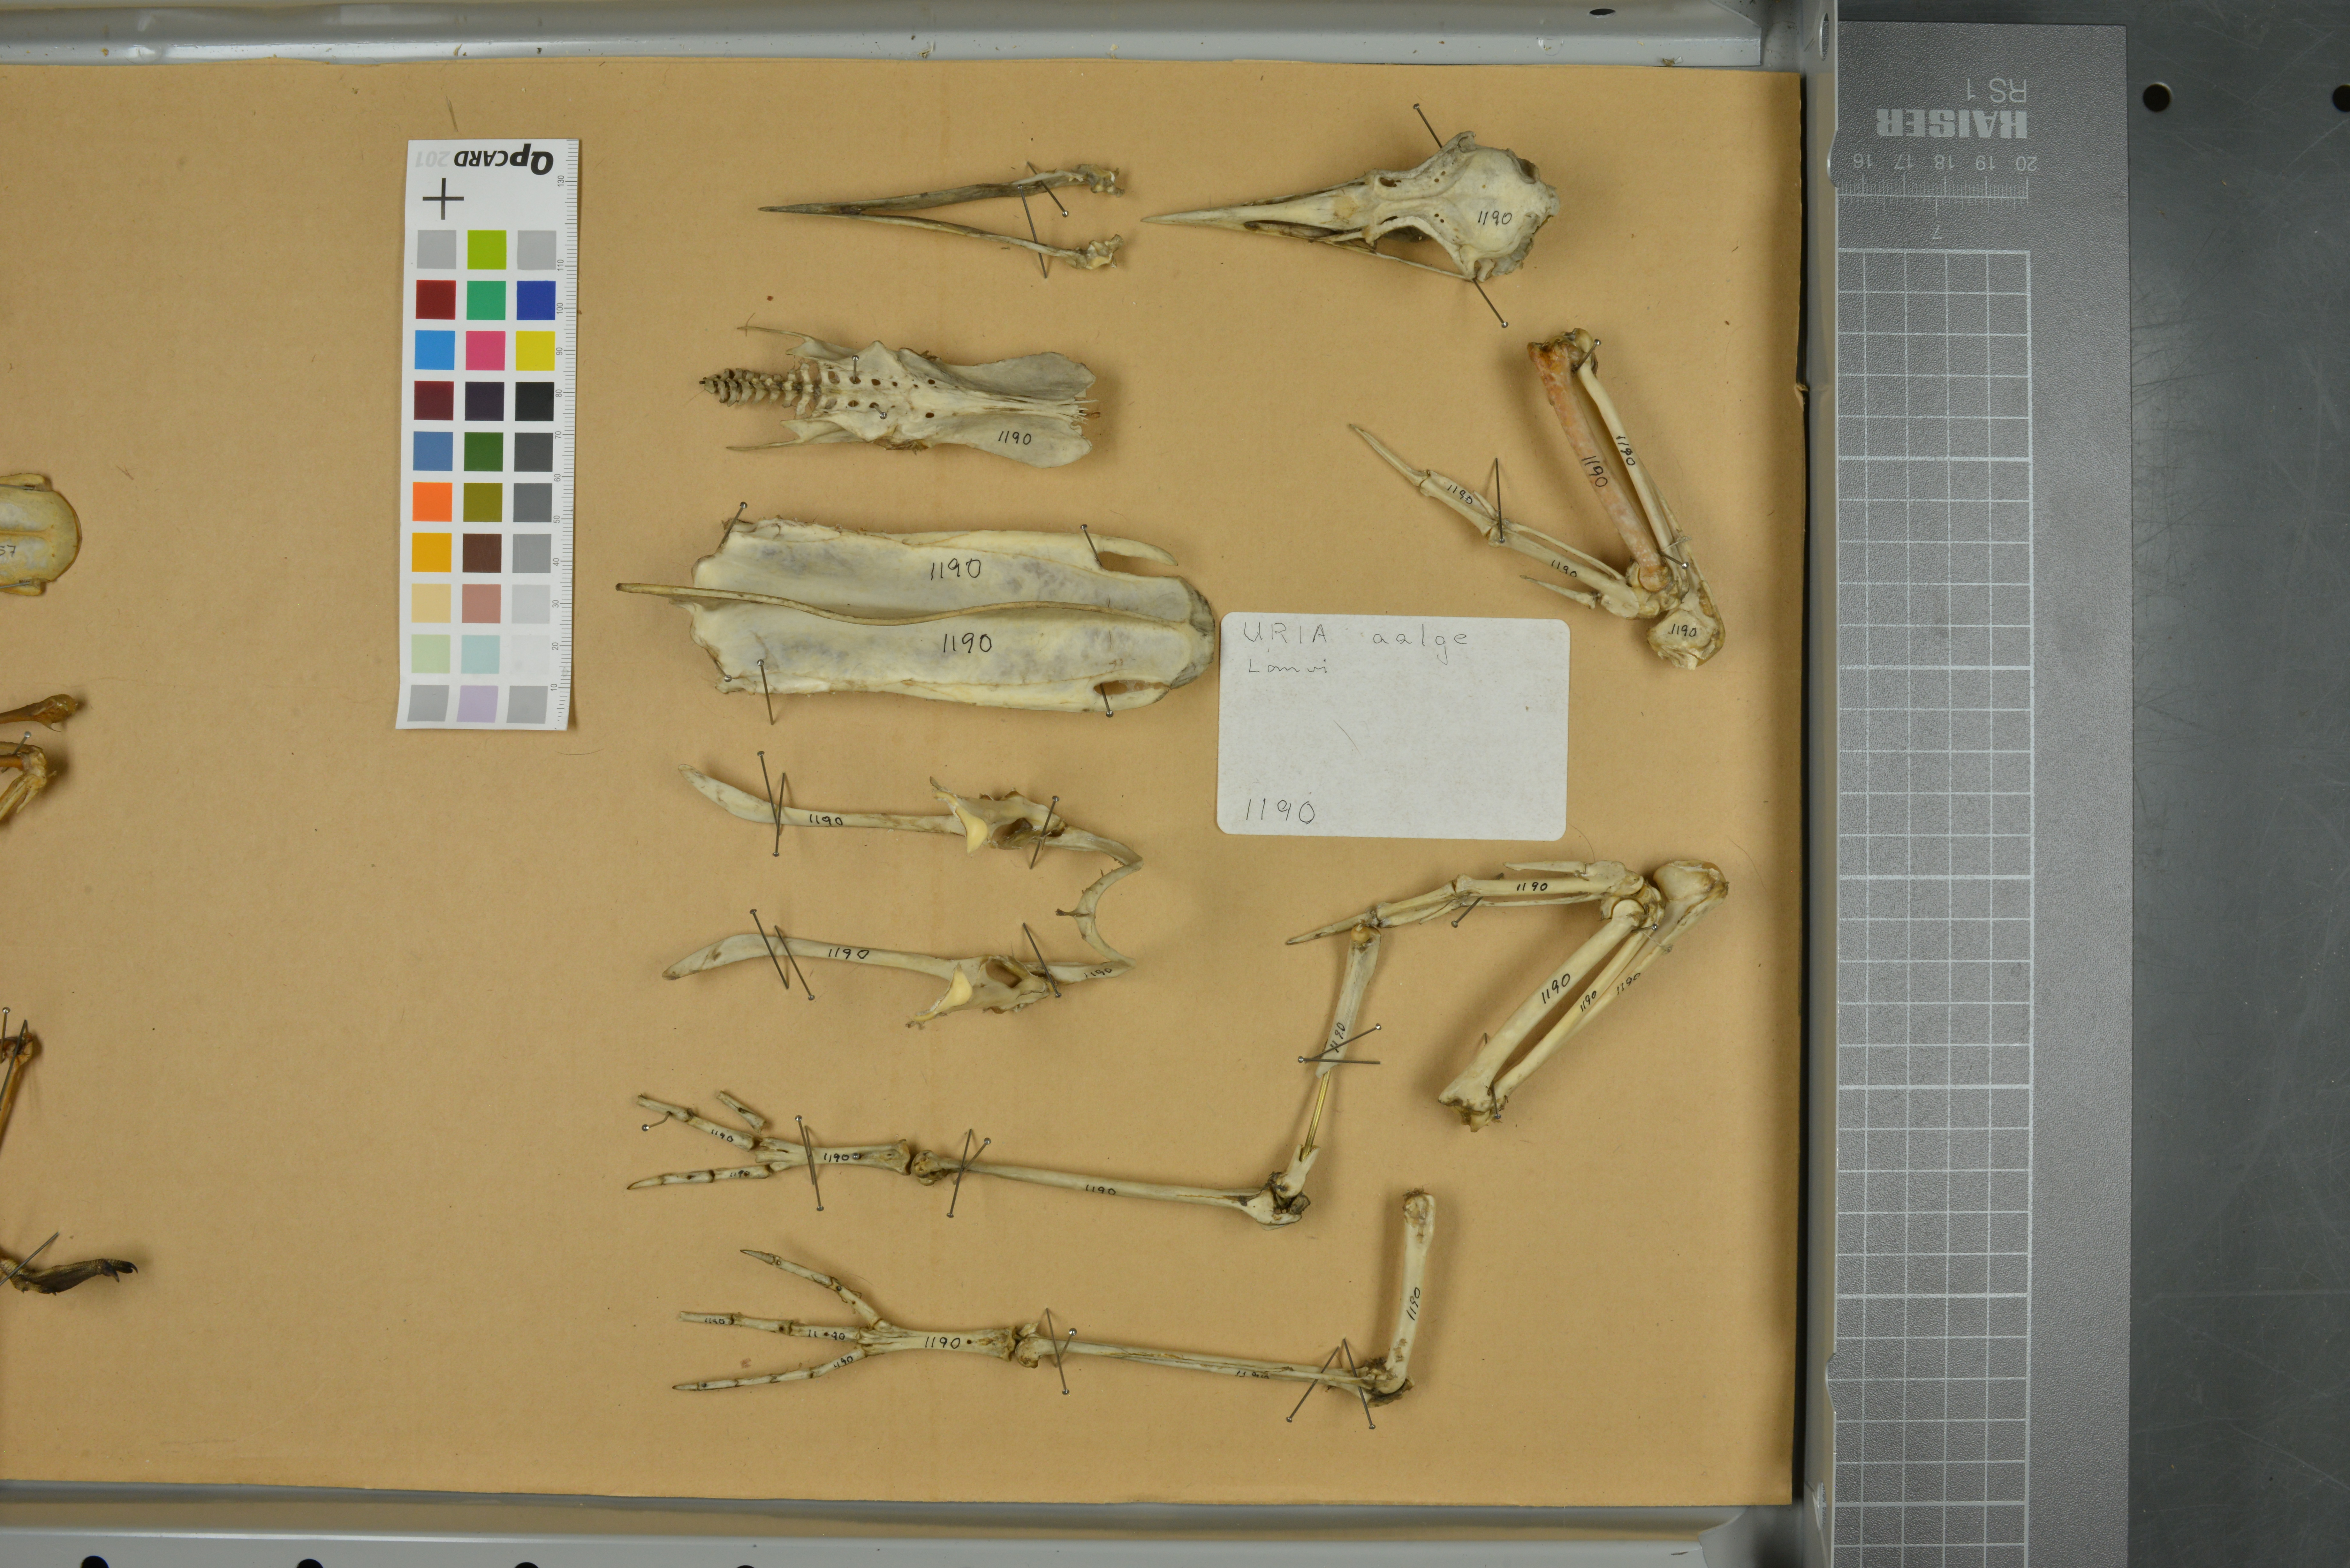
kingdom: Animalia
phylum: Chordata
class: Aves
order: Charadriiformes
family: Alcidae
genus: Uria
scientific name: Uria aalge
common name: Common murre
